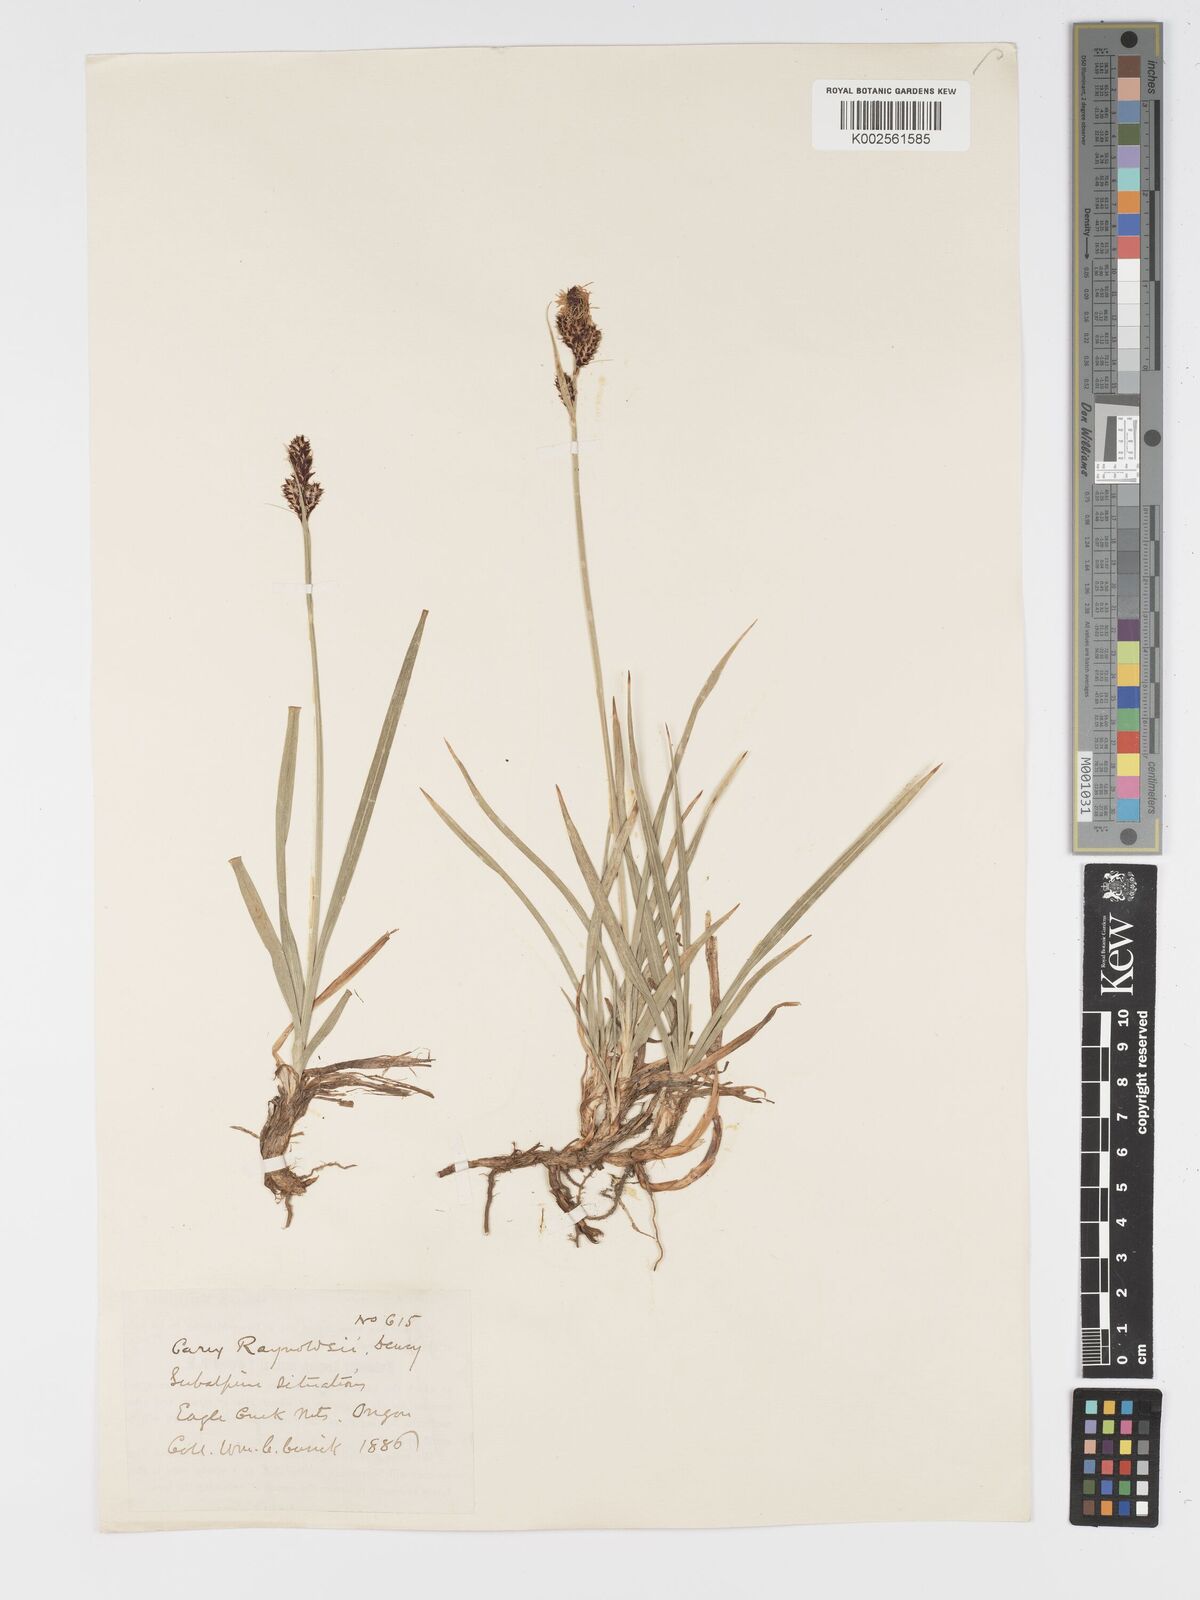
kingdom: Plantae
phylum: Tracheophyta
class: Liliopsida
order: Poales
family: Cyperaceae
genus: Carex
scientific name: Carex raynoldsii
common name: Raynolds' sedge
